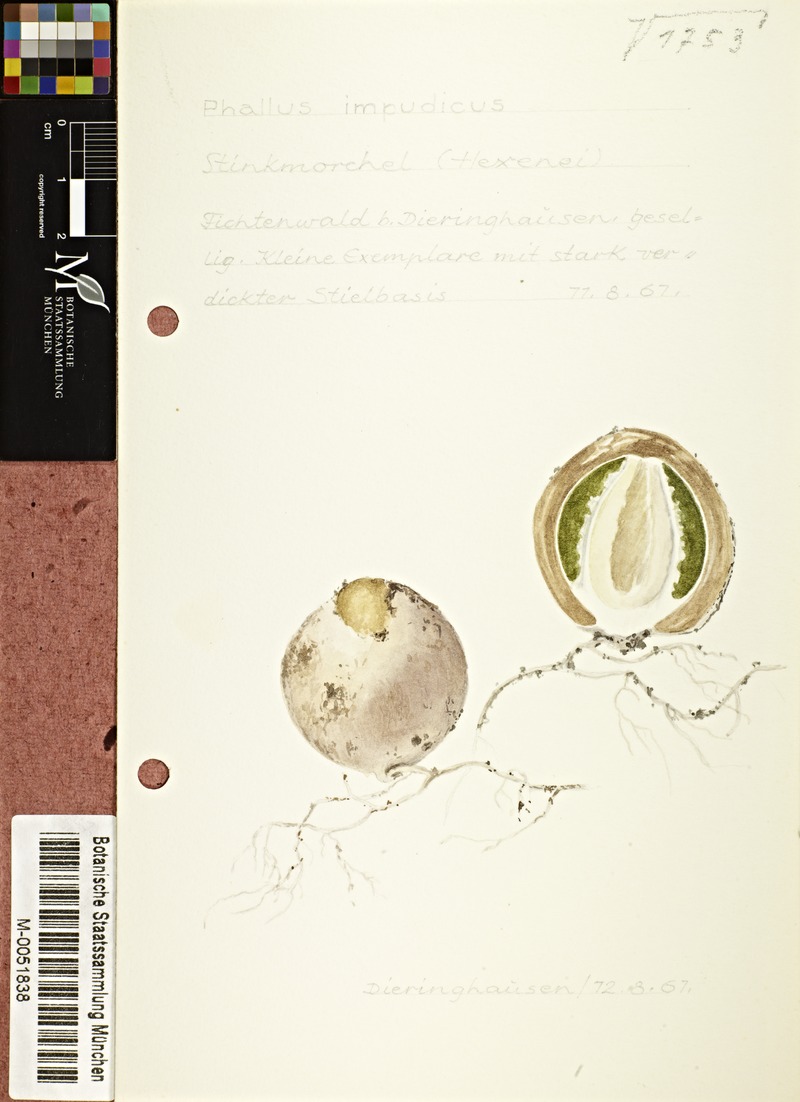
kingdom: Fungi
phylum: Basidiomycota
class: Agaricomycetes
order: Phallales
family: Phallaceae
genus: Phallus
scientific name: Phallus impudicus
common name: Common stinkhorn
